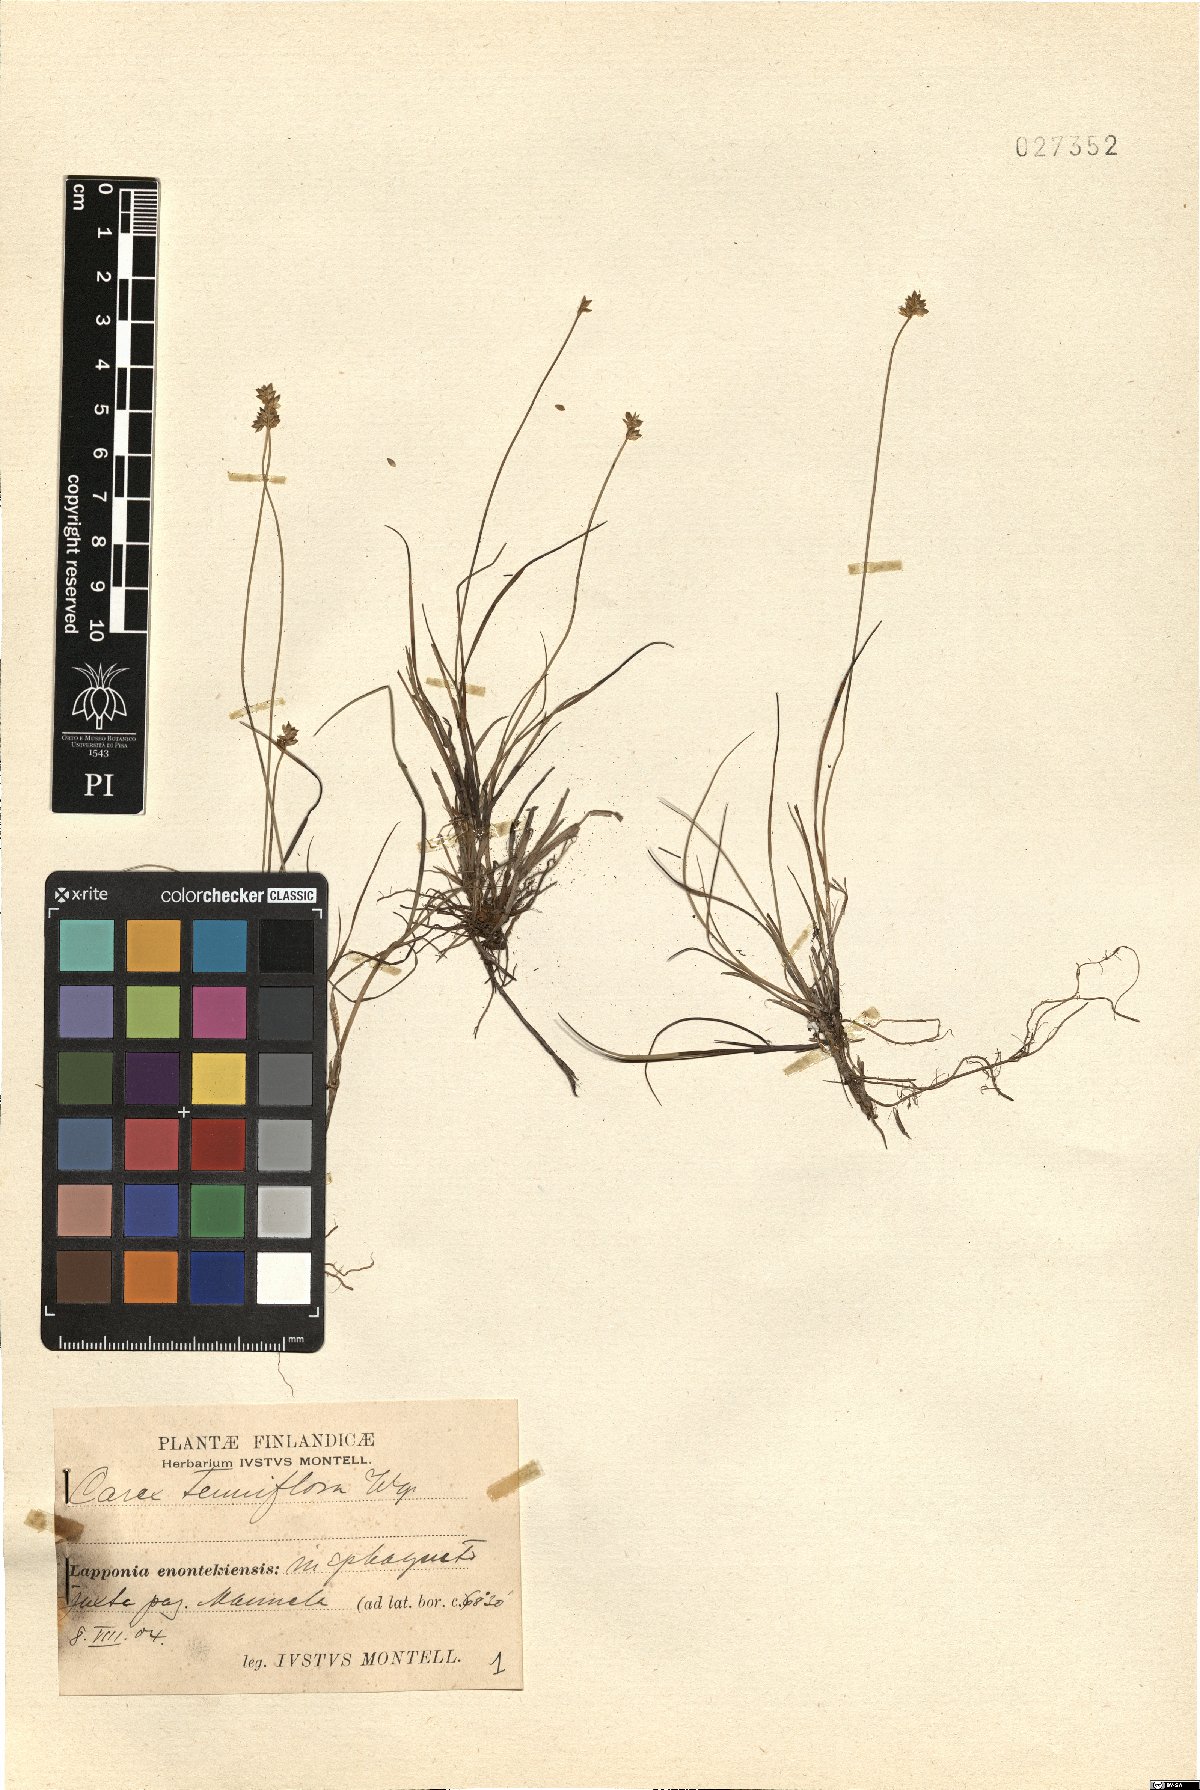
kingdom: Plantae
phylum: Tracheophyta
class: Liliopsida
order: Poales
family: Cyperaceae
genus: Carex
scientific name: Carex tenuiflora
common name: Sparse-flowered sedge
